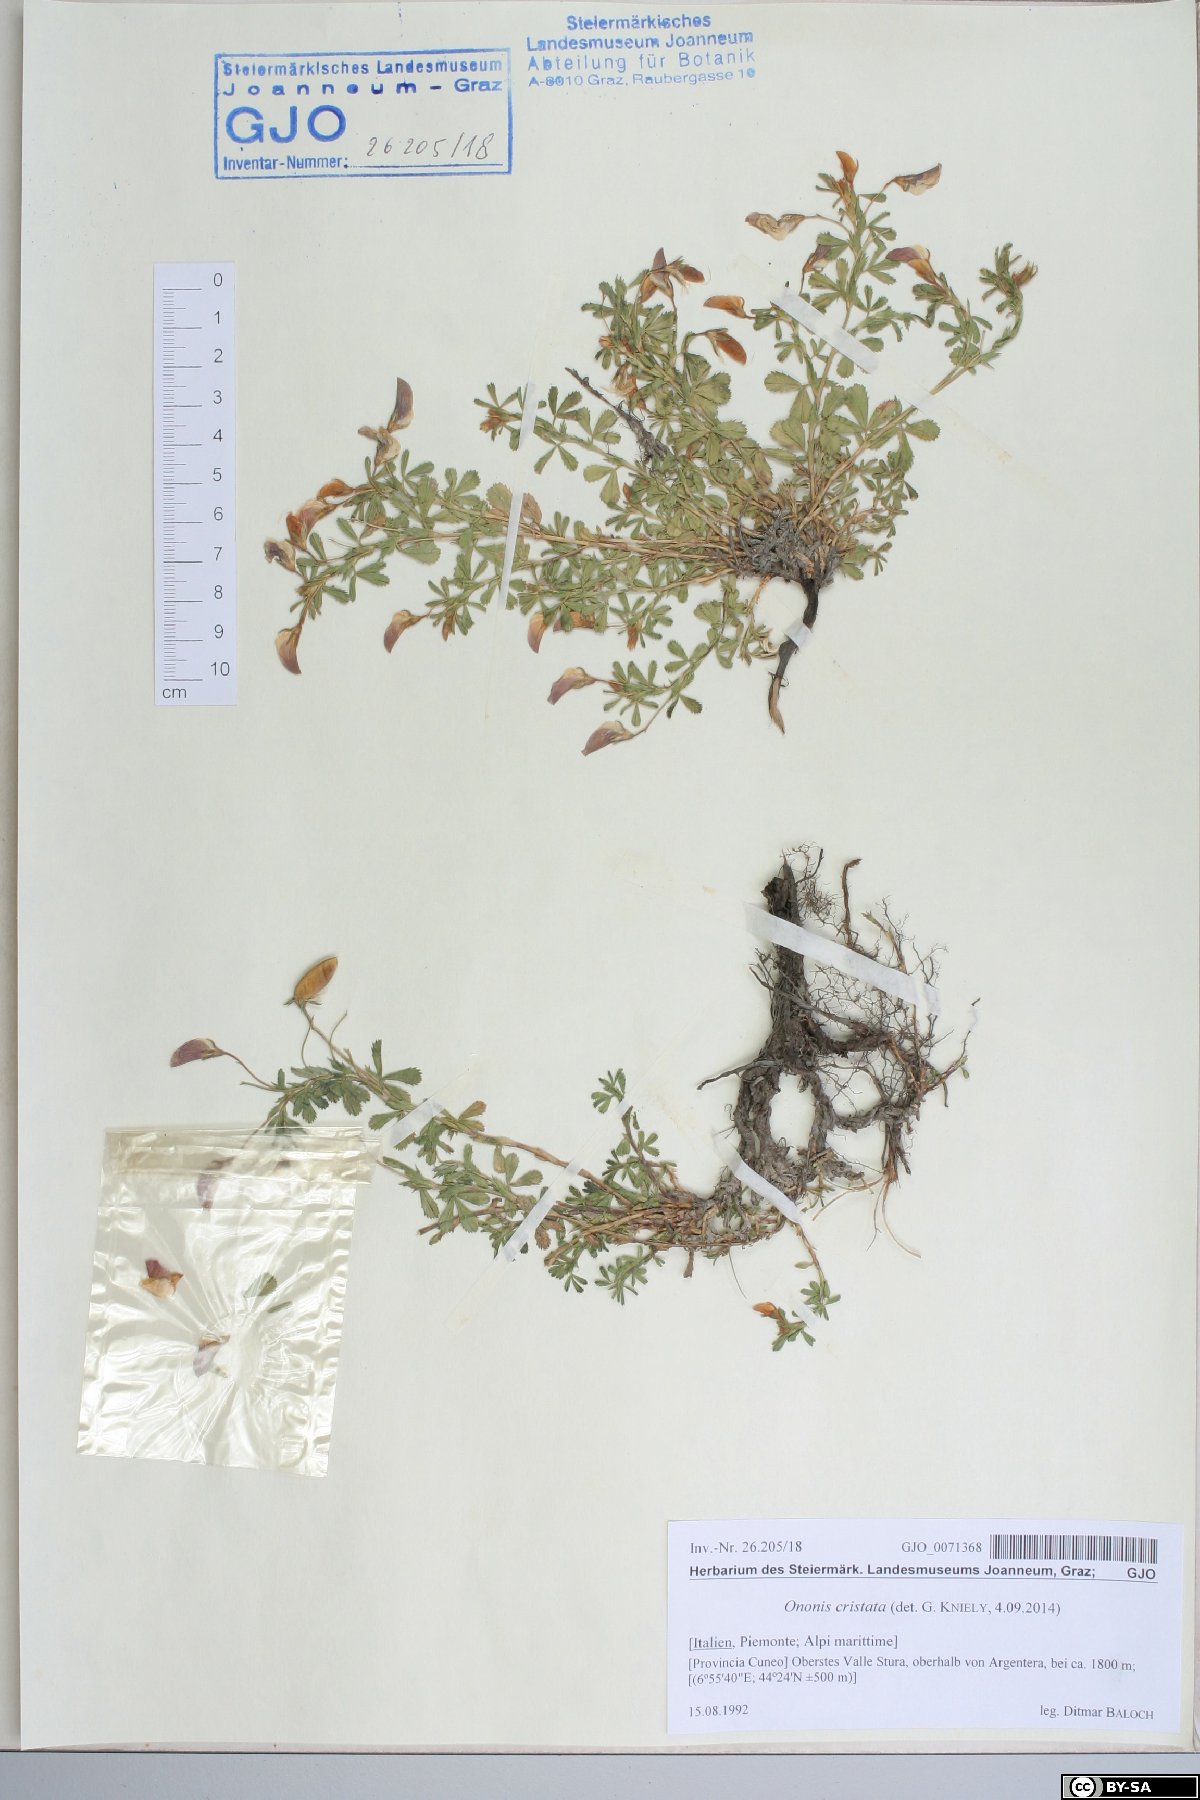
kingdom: Plantae
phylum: Tracheophyta
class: Magnoliopsida
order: Fabales
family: Fabaceae
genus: Ononis
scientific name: Ononis cristata
